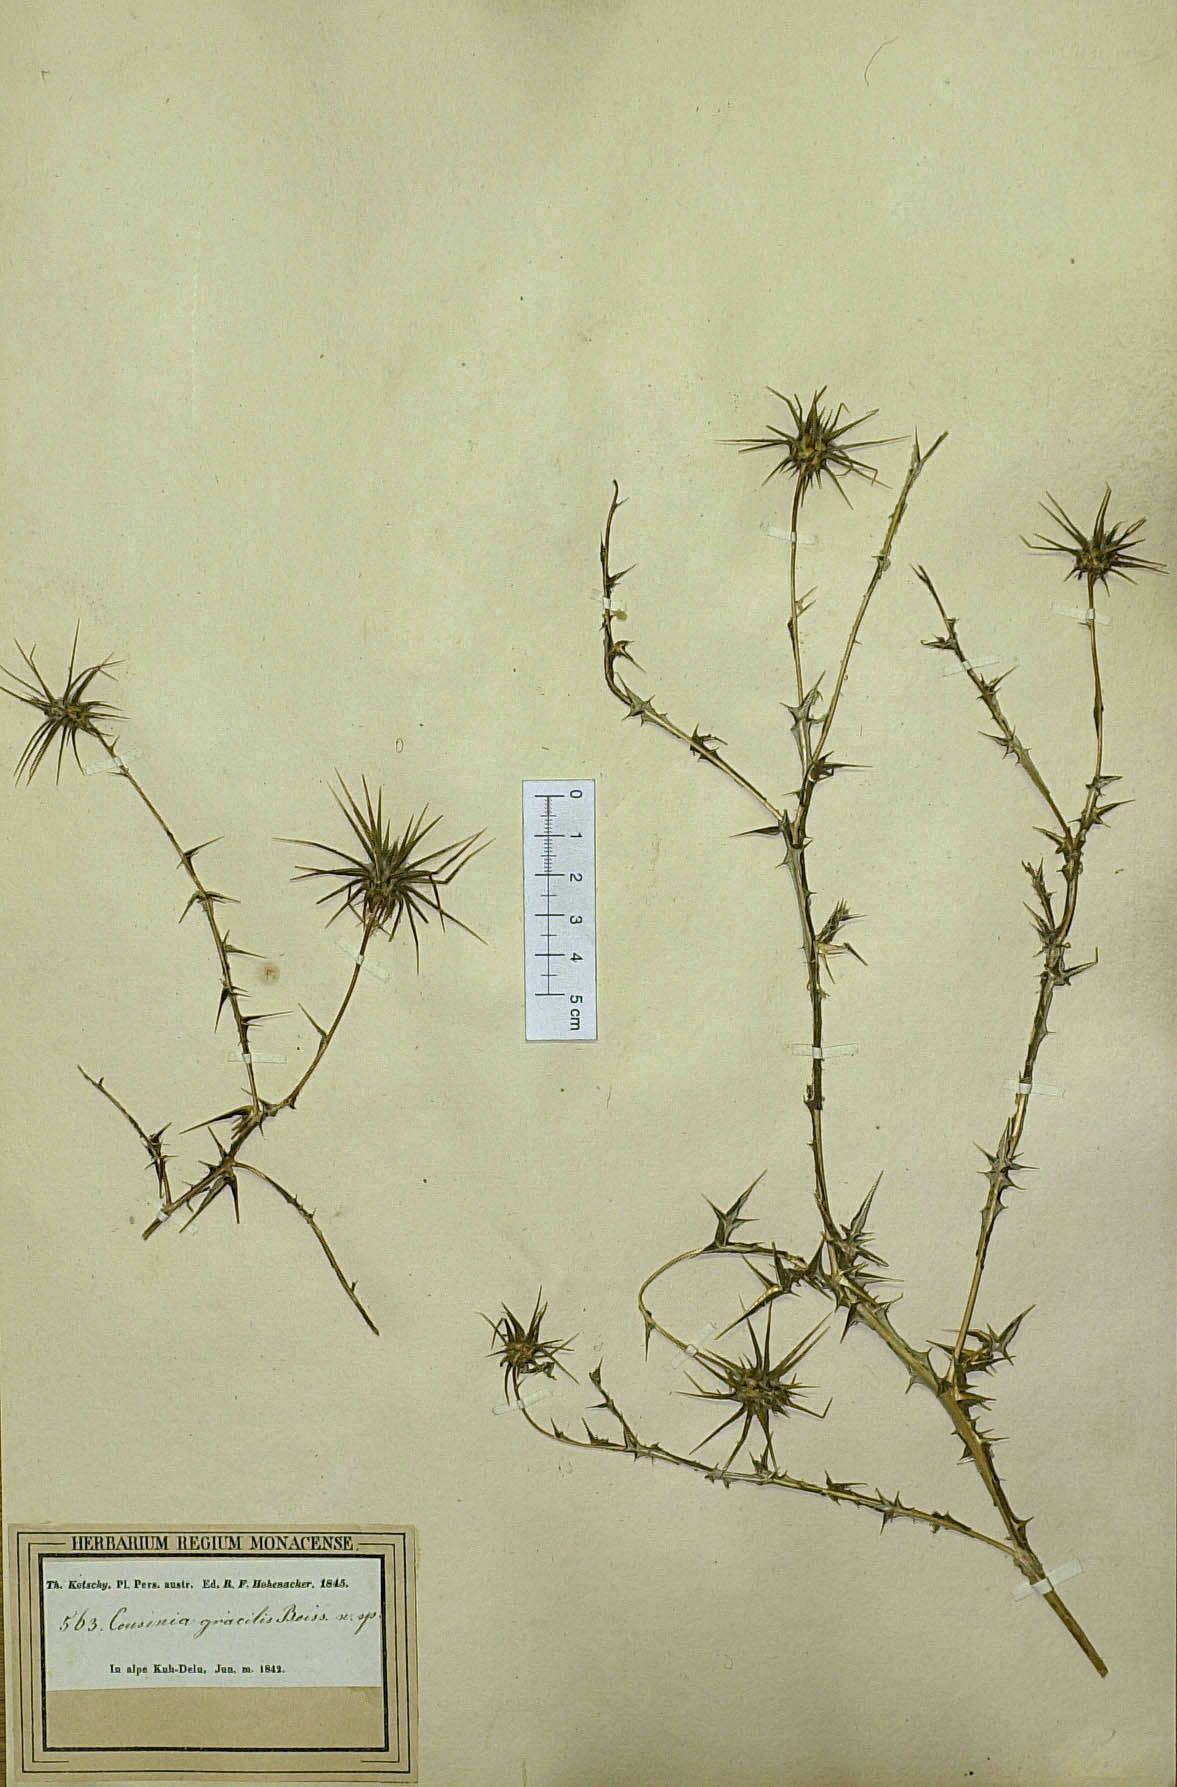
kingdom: Plantae
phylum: Tracheophyta
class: Magnoliopsida
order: Asterales
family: Asteraceae
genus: Cousinia
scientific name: Cousinia gracilis
